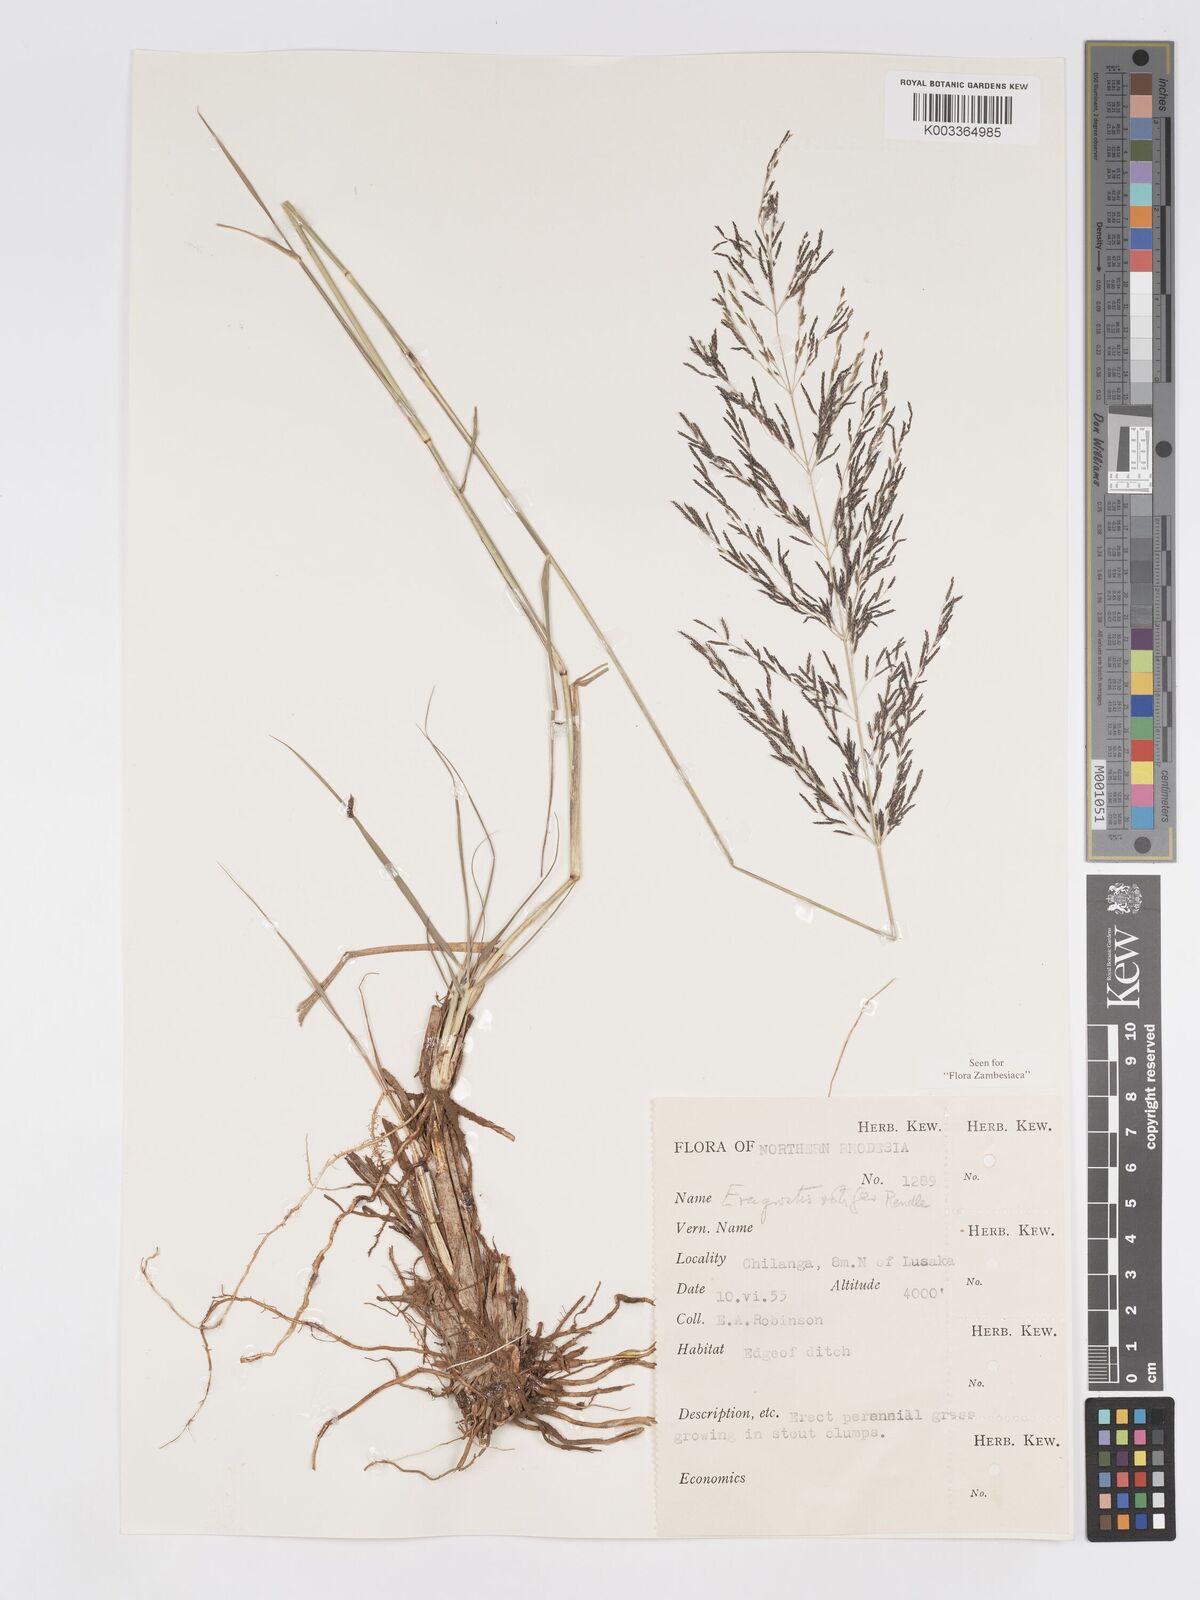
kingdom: Plantae
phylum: Tracheophyta
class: Liliopsida
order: Poales
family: Poaceae
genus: Eragrostis
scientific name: Eragrostis rotifer
